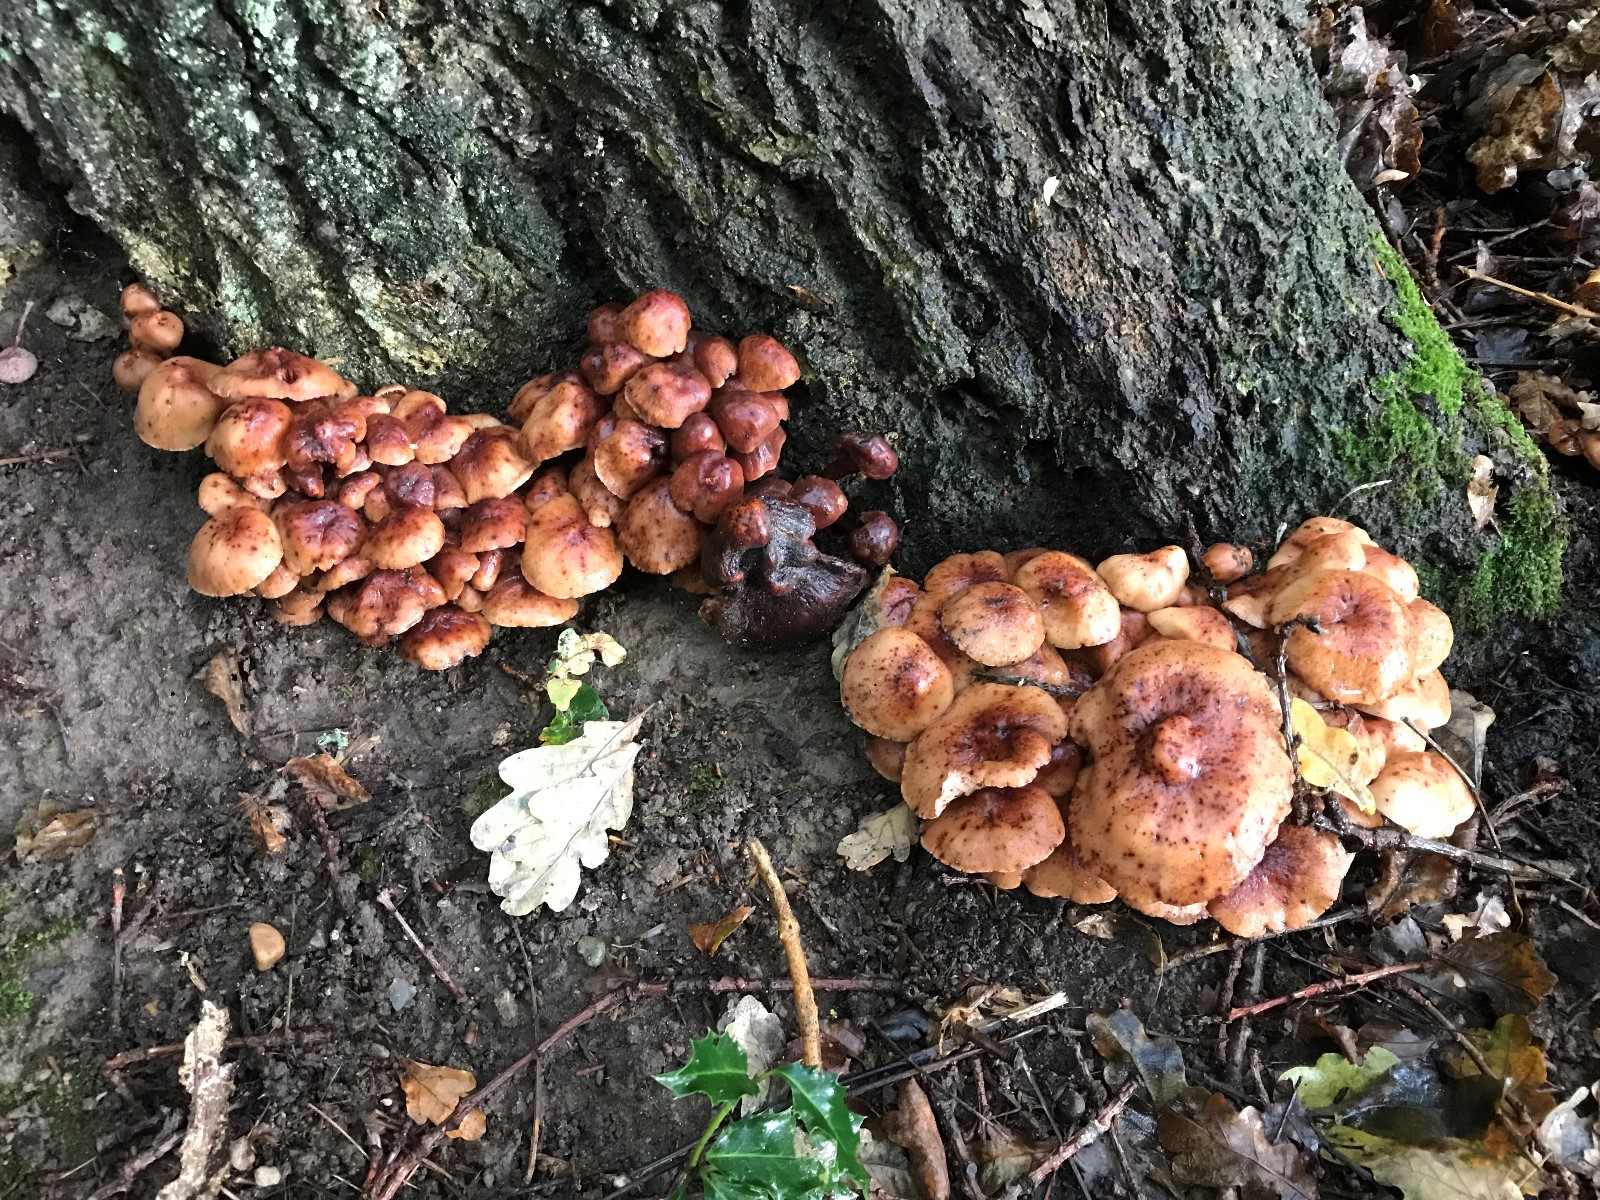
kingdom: Fungi
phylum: Basidiomycota
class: Agaricomycetes
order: Agaricales
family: Omphalotaceae
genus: Gymnopus
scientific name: Gymnopus fusipes
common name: tenstokket fladhat
